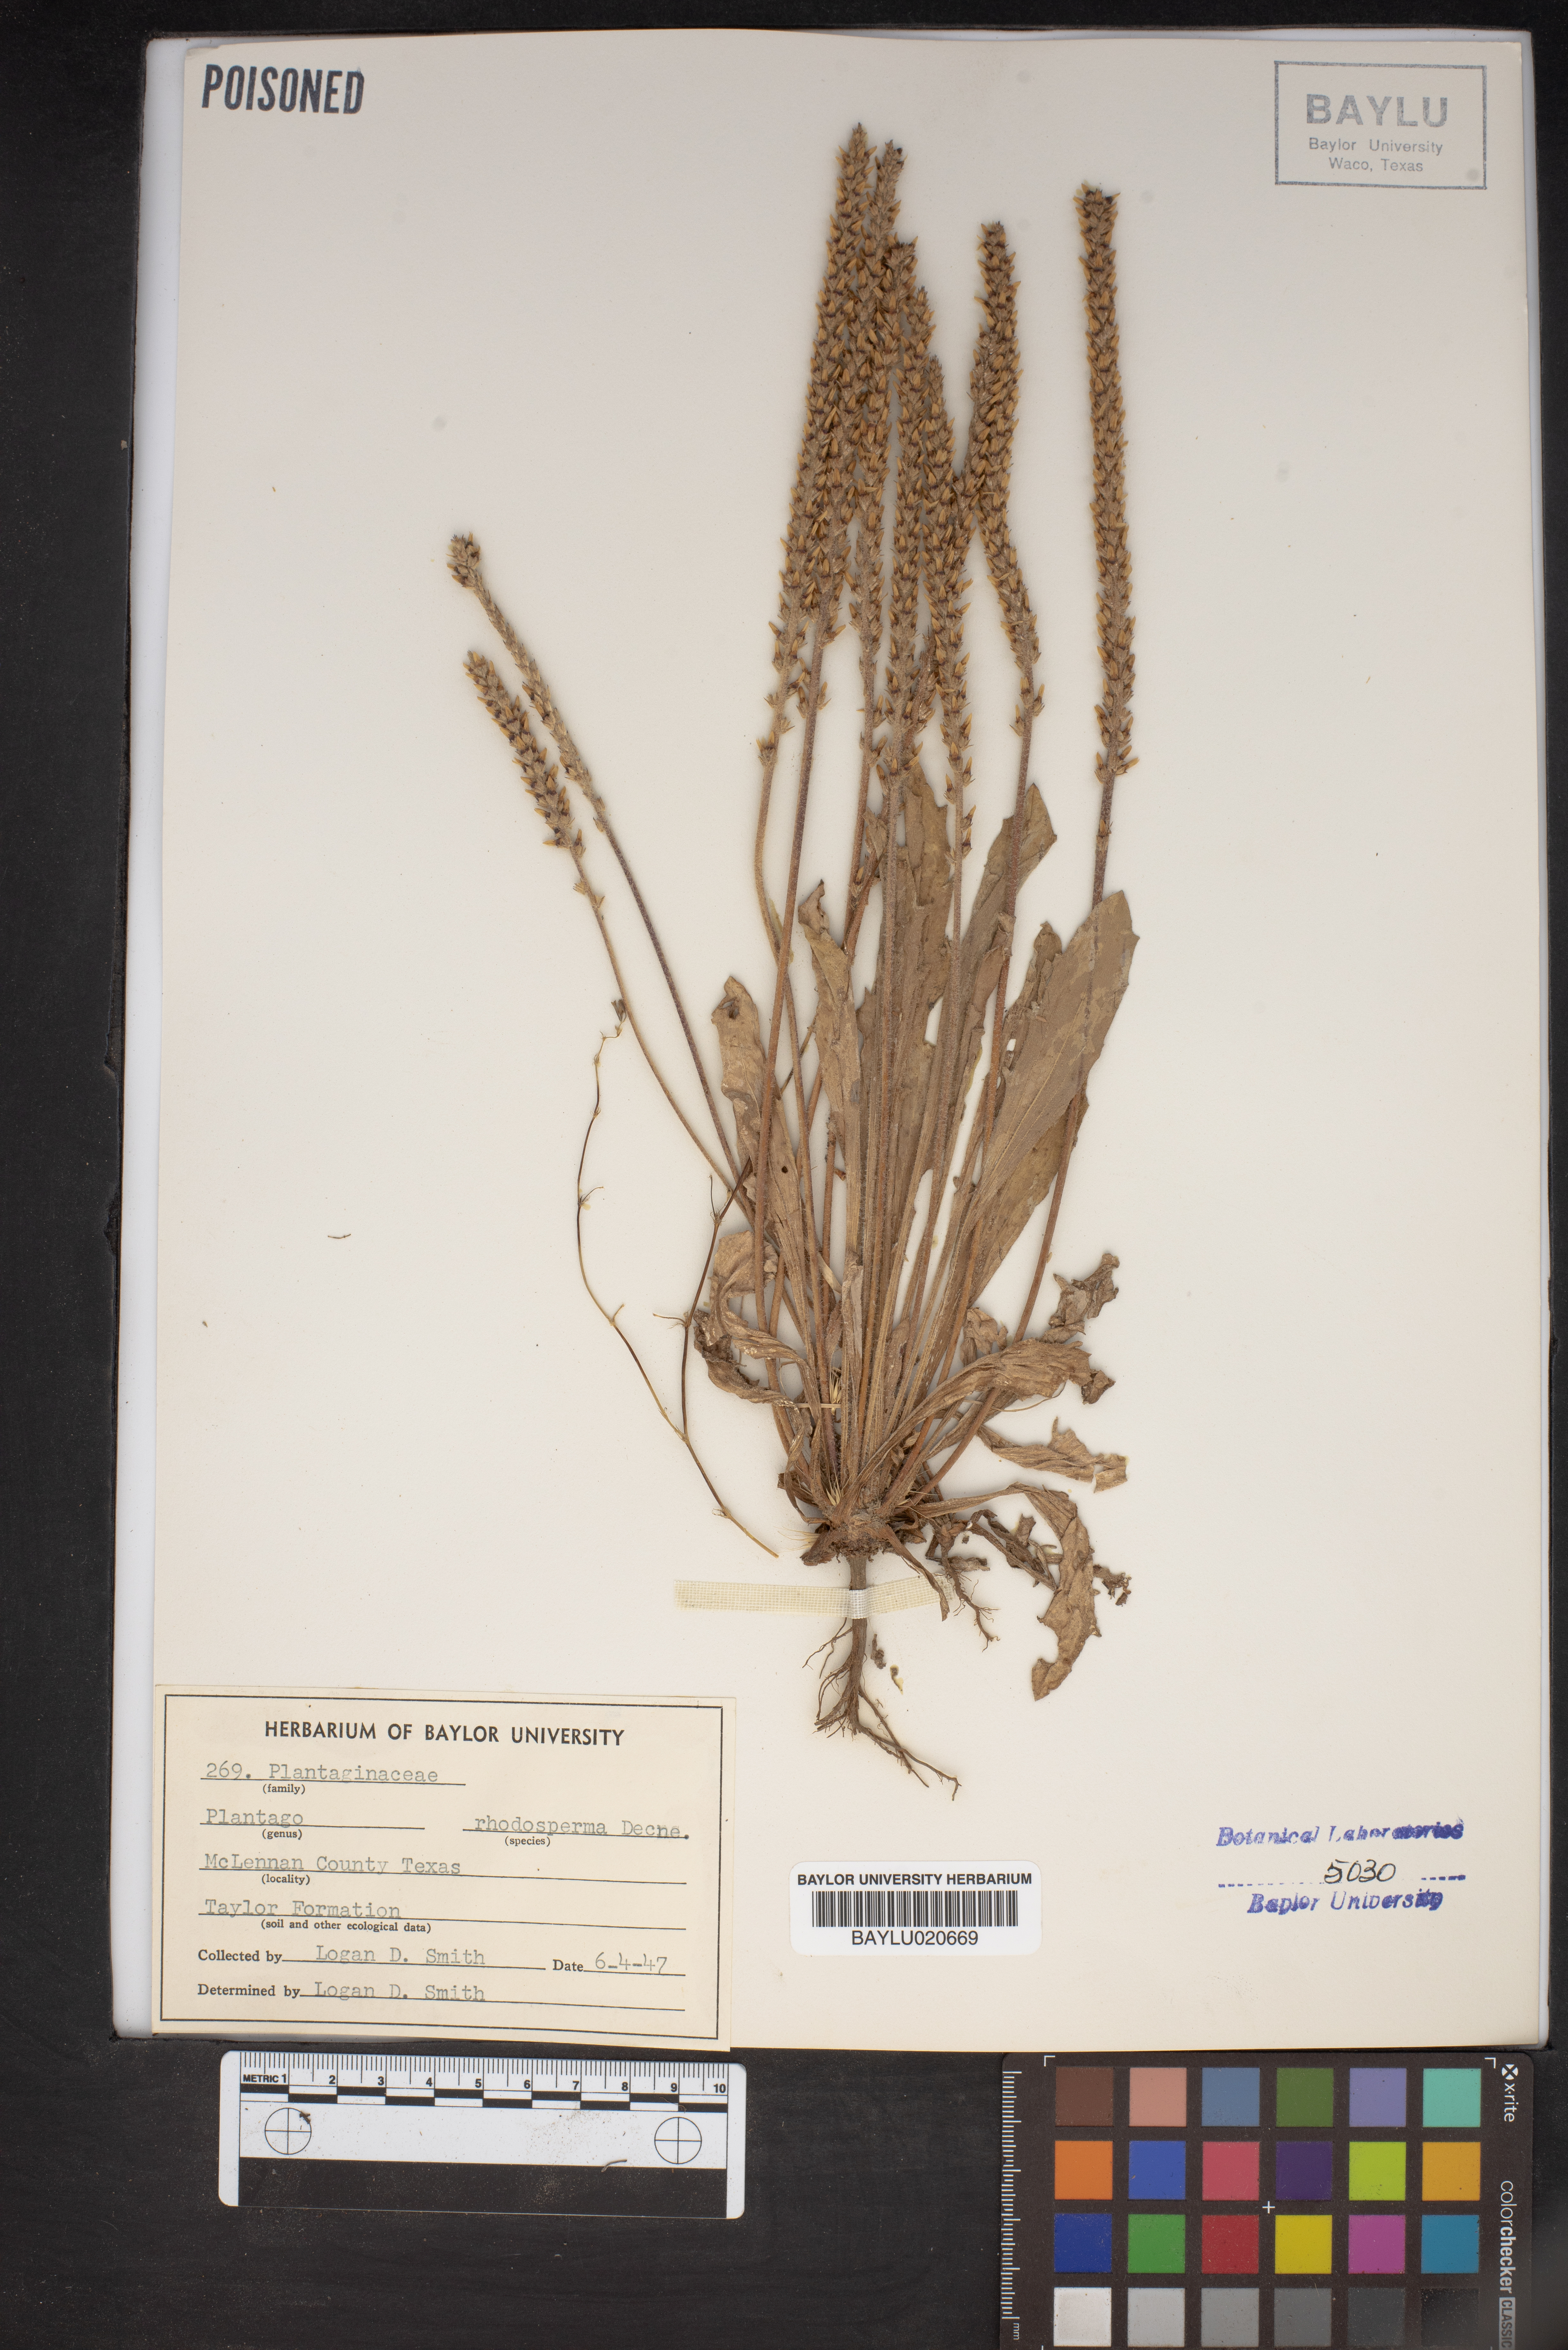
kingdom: Plantae
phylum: Tracheophyta
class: Magnoliopsida
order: Lamiales
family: Plantaginaceae
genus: Plantago
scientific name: Plantago rhodosperma
